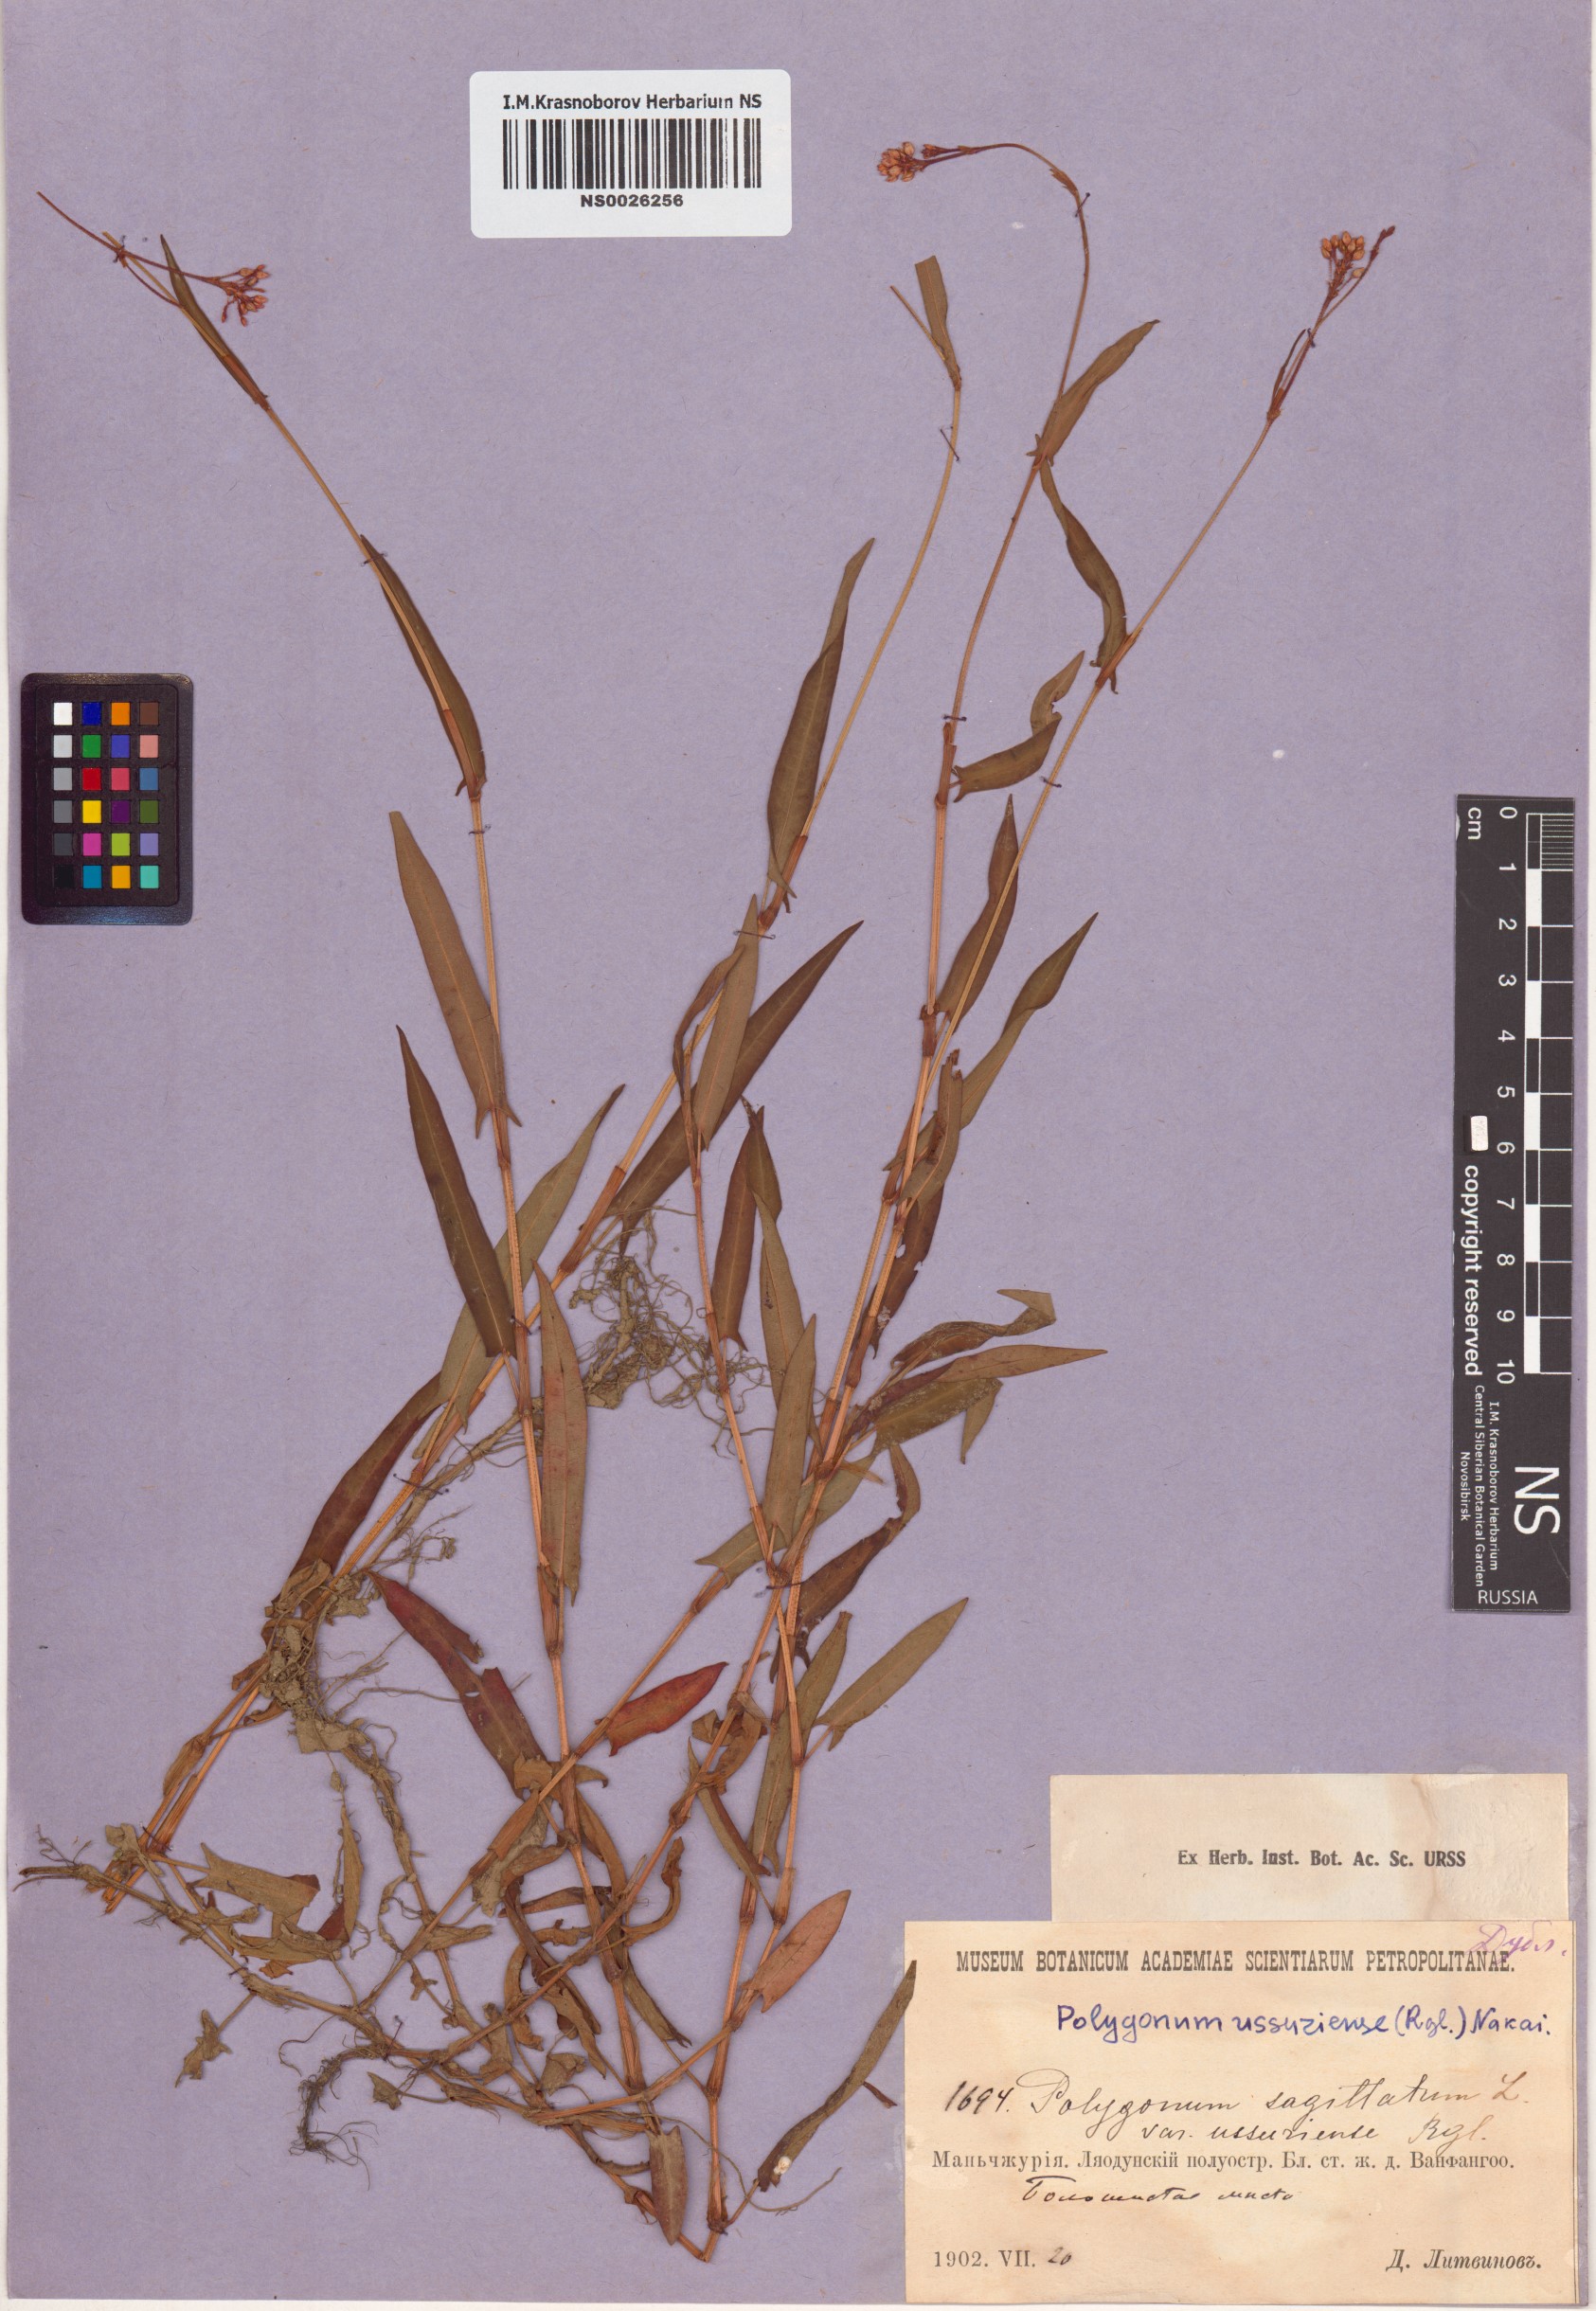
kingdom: Plantae
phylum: Tracheophyta
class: Magnoliopsida
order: Caryophyllales
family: Polygonaceae
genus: Bistorta
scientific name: Bistorta officinalis
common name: Common bistort
